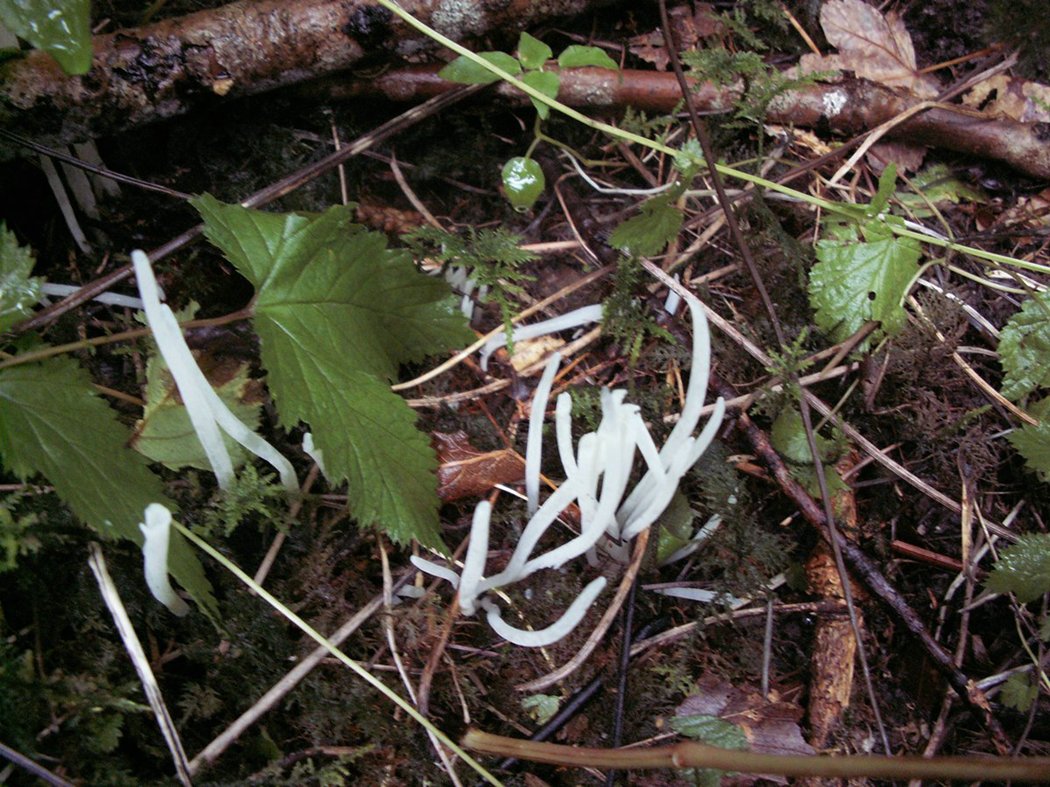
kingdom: Fungi
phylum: Basidiomycota
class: Agaricomycetes
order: Agaricales
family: Clavariaceae
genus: Clavaria
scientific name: Clavaria falcata
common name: hvid køllesvamp
